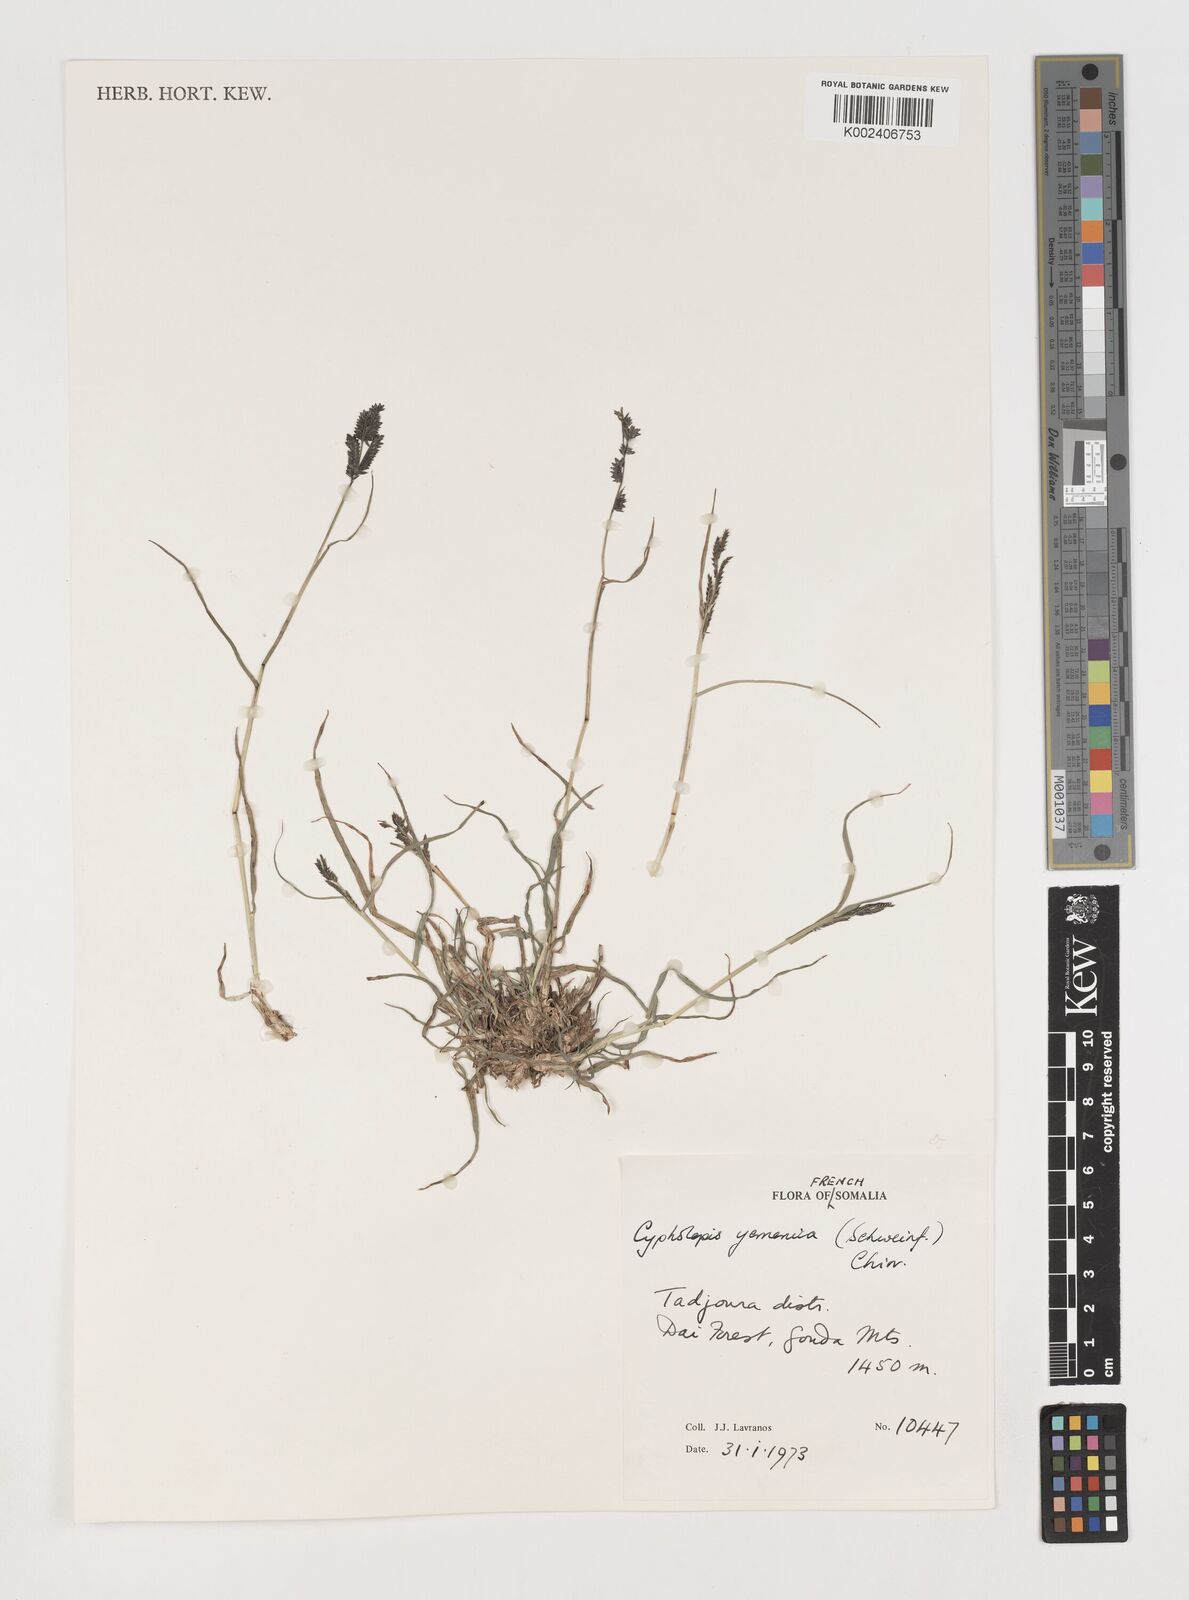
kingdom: Plantae
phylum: Tracheophyta
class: Liliopsida
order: Poales
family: Poaceae
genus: Disakisperma
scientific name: Disakisperma yemenicum
